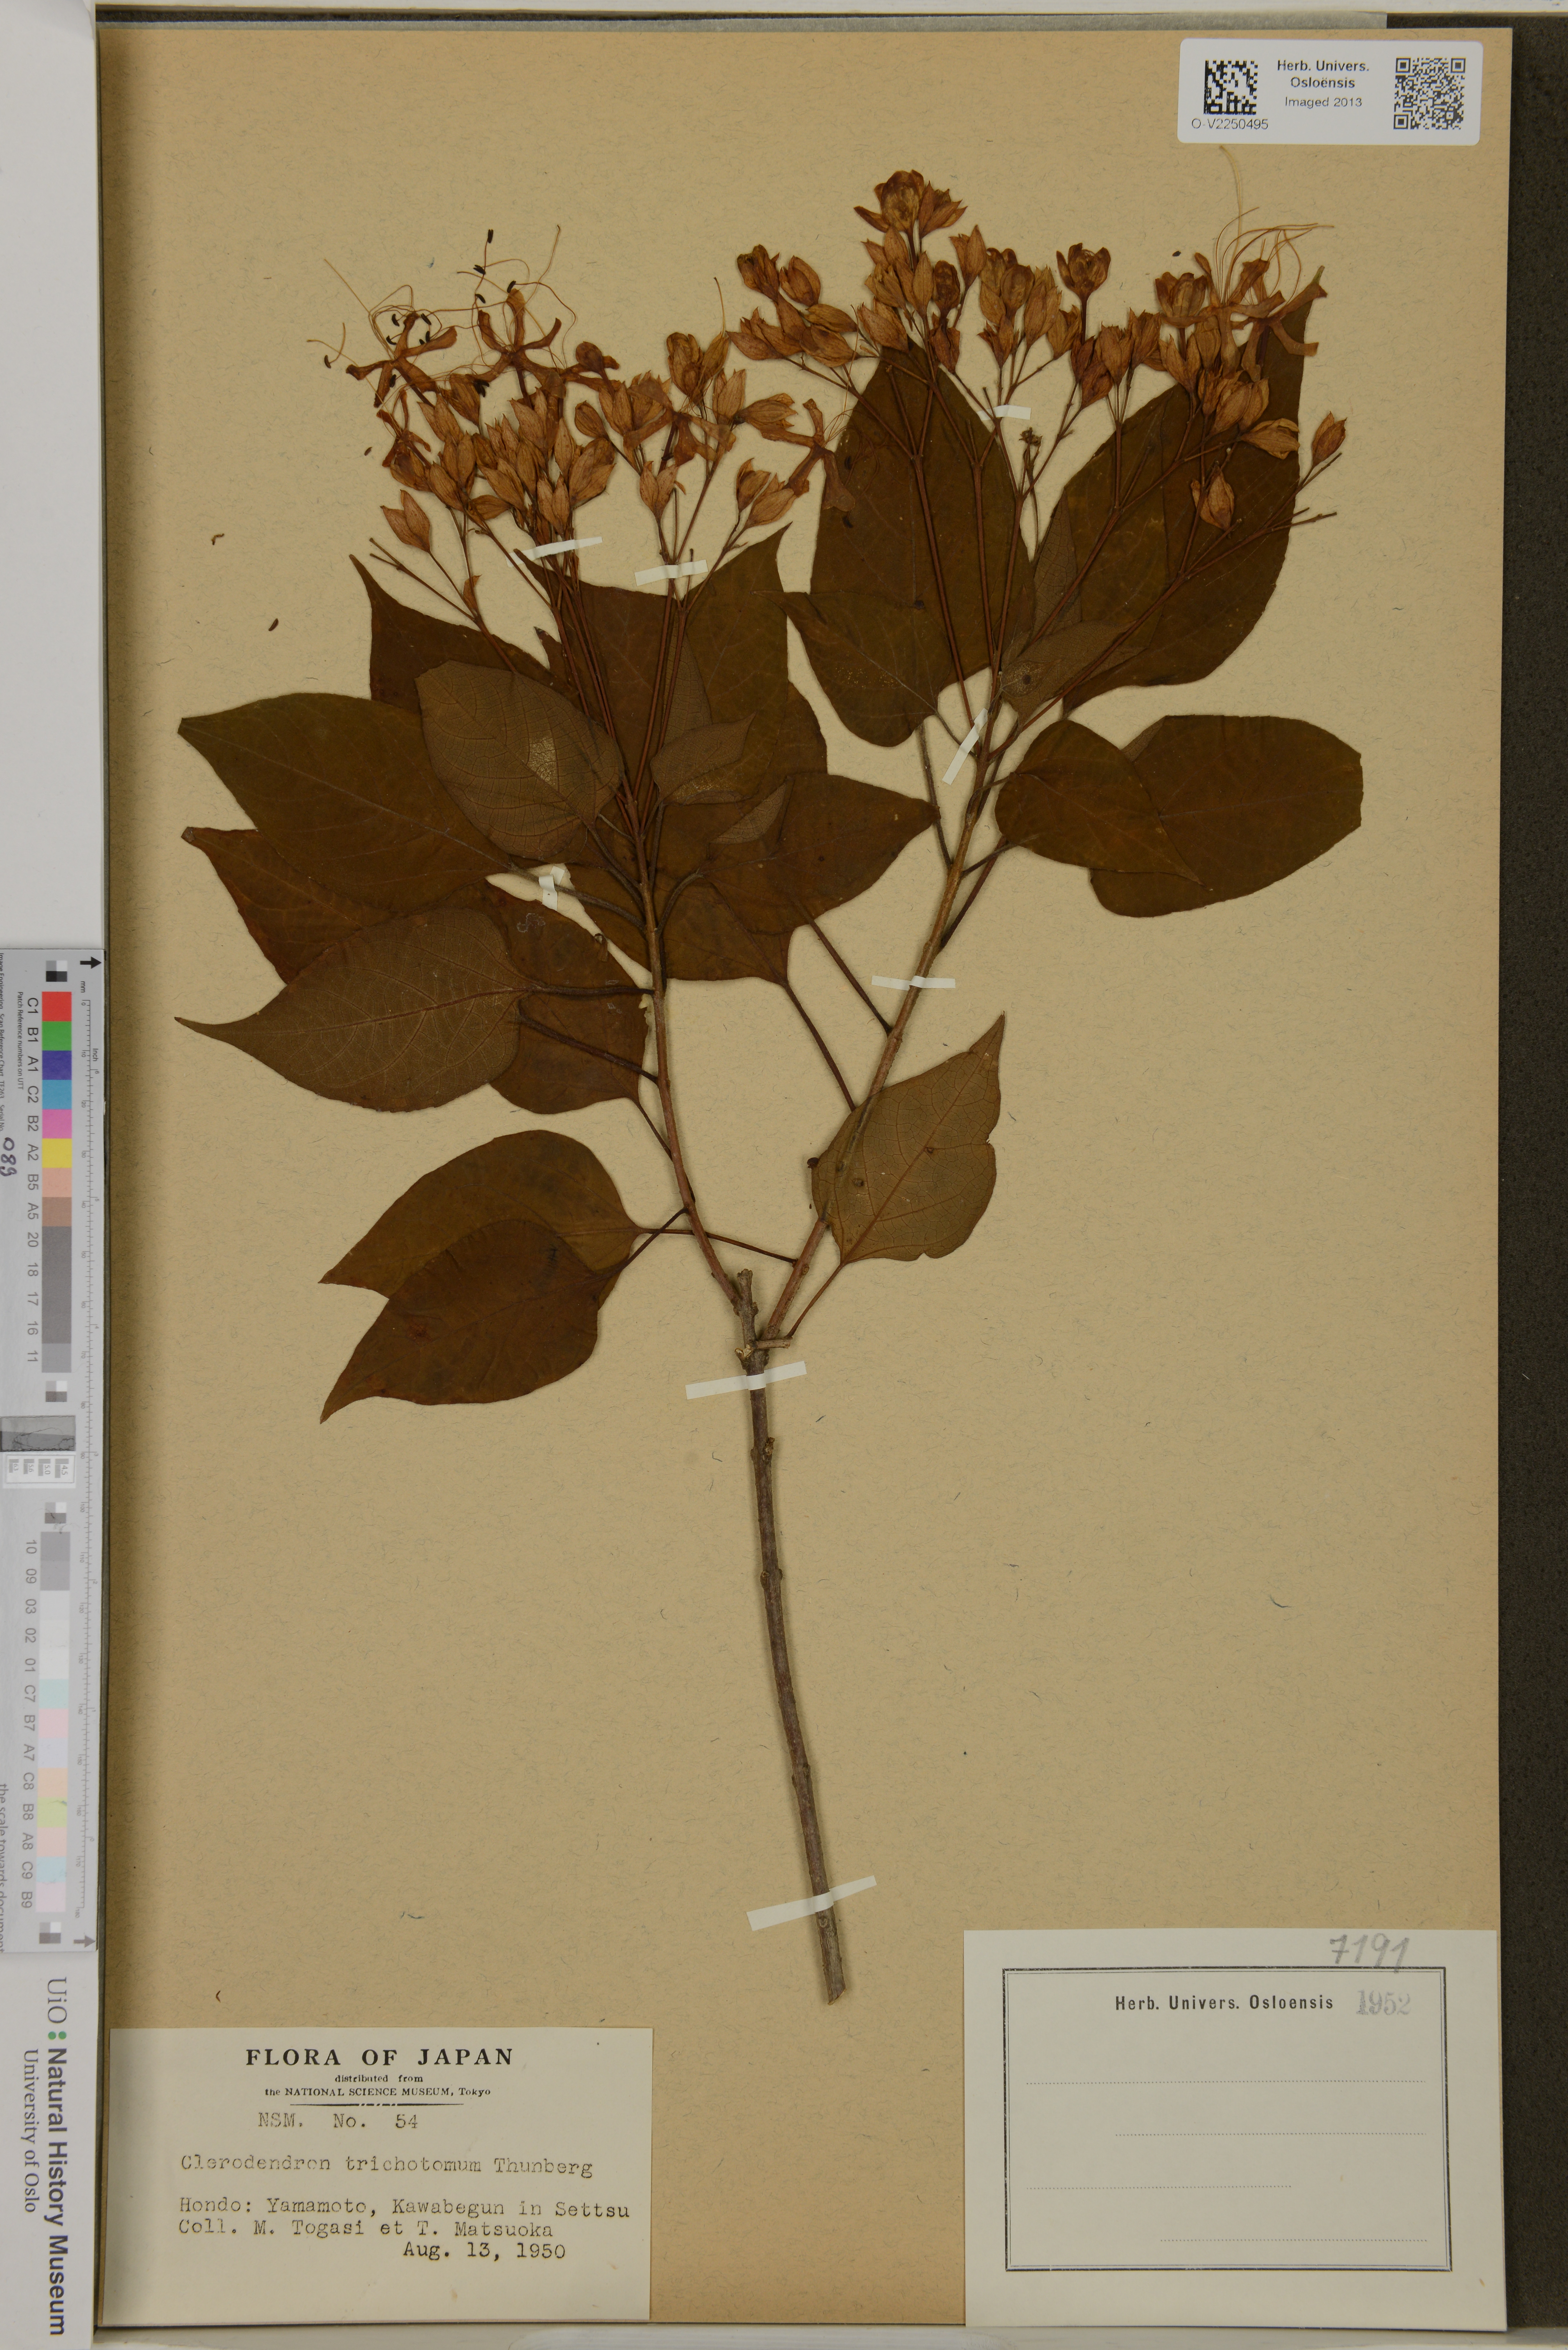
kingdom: Plantae
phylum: Tracheophyta
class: Magnoliopsida
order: Lamiales
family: Lamiaceae
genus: Clerodendrum
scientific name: Clerodendrum trichotomum
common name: Harlequin glorybower
